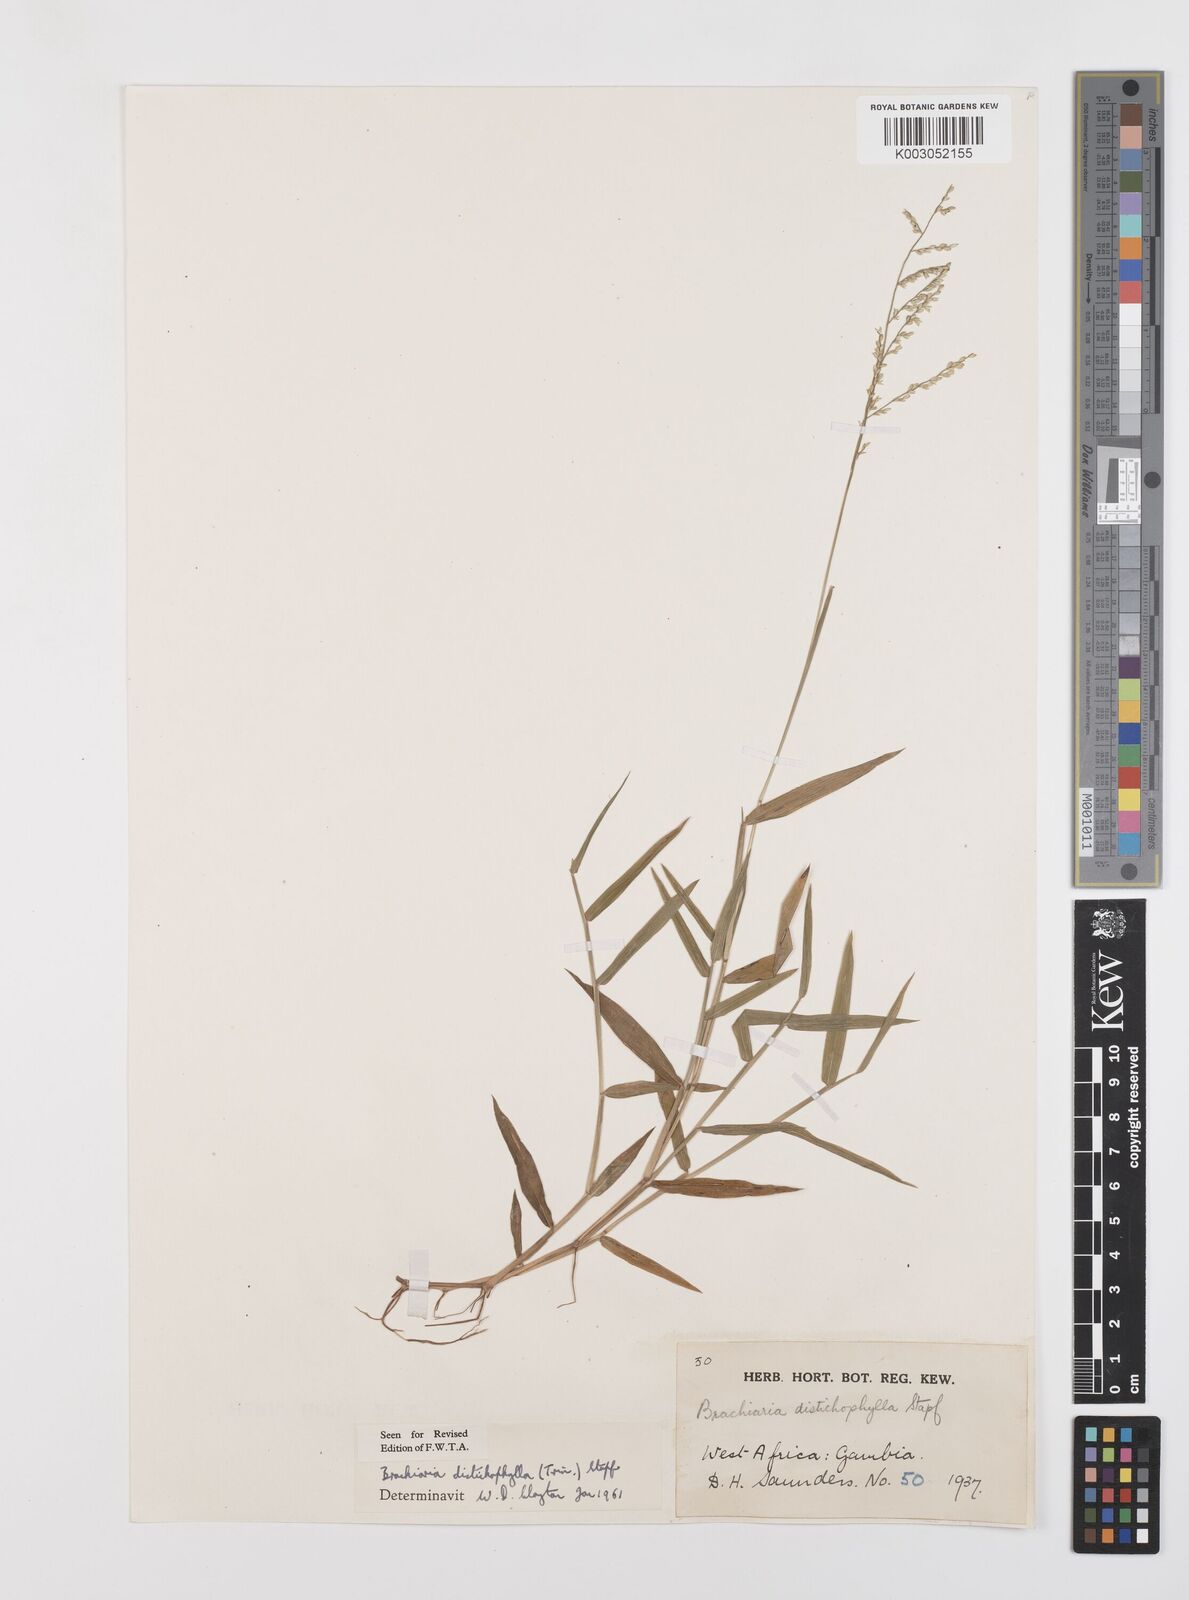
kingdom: Plantae
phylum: Tracheophyta
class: Liliopsida
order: Poales
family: Poaceae
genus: Urochloa
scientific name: Urochloa villosa
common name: Hairy signalgrass
